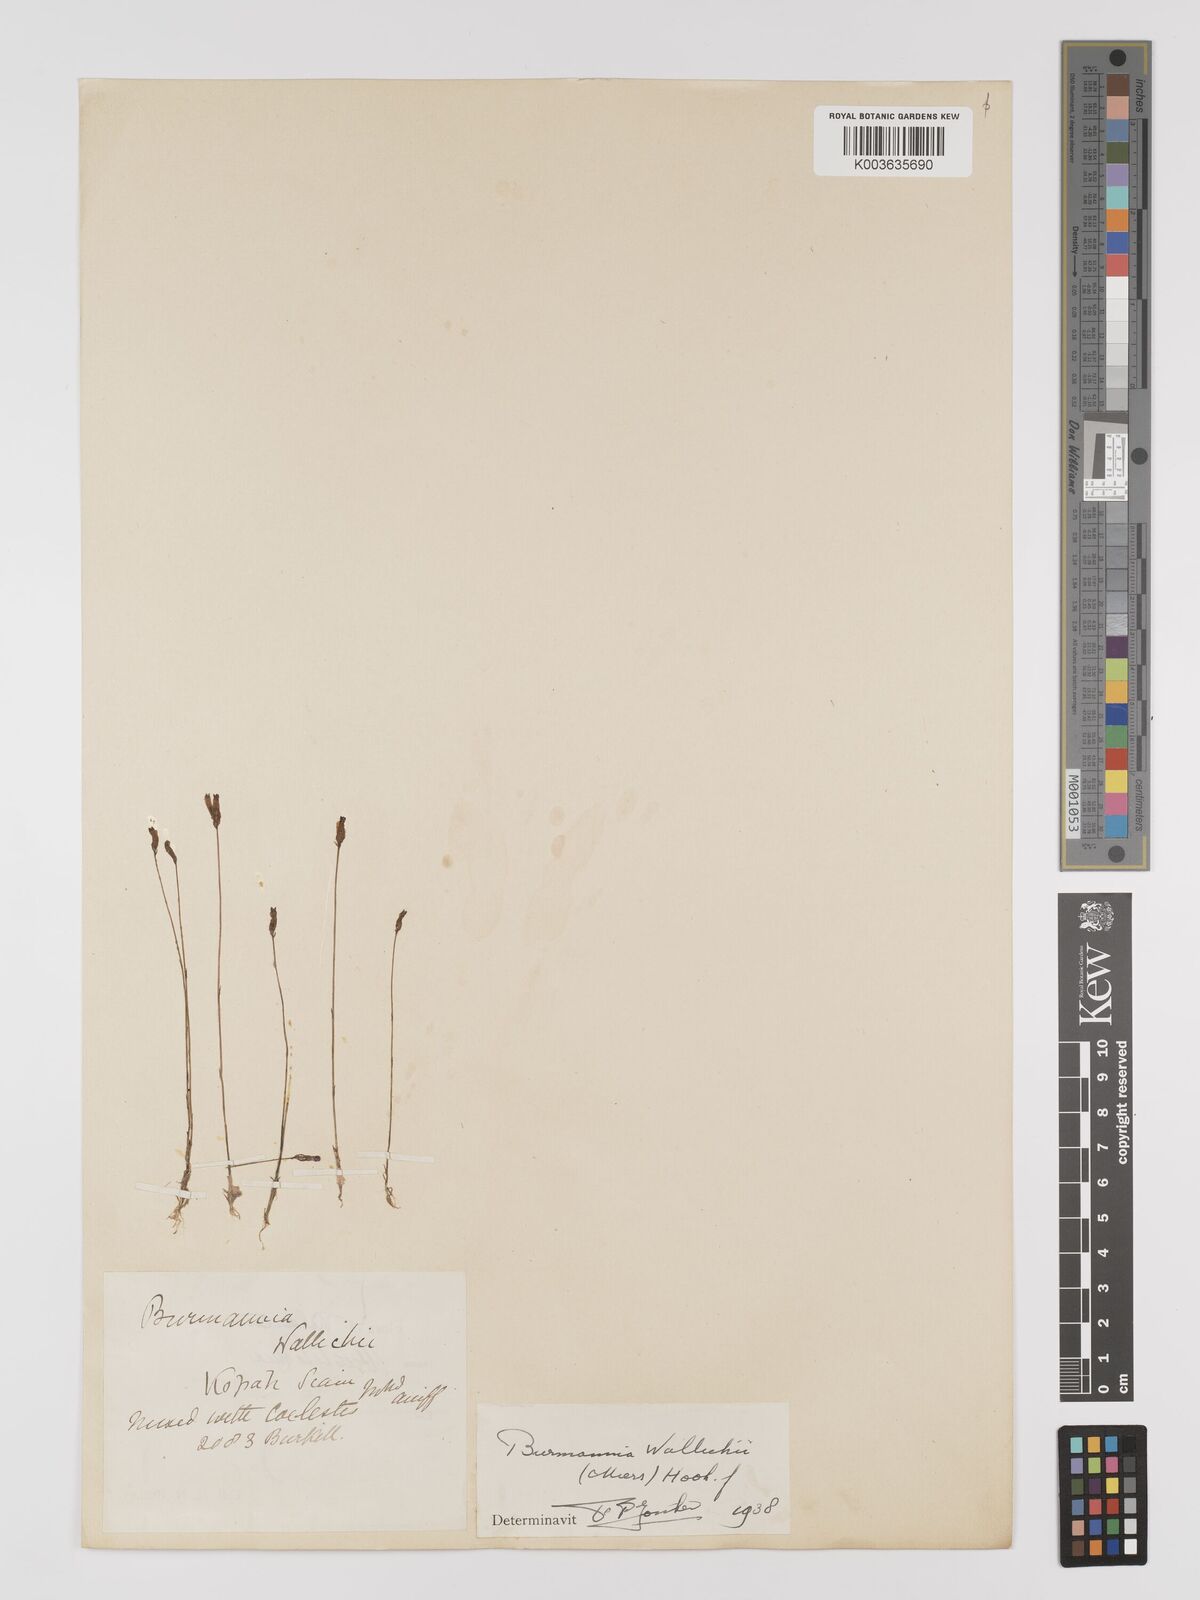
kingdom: Plantae
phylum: Tracheophyta
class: Liliopsida
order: Dioscoreales
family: Burmanniaceae
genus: Burmannia
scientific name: Burmannia wallichii
